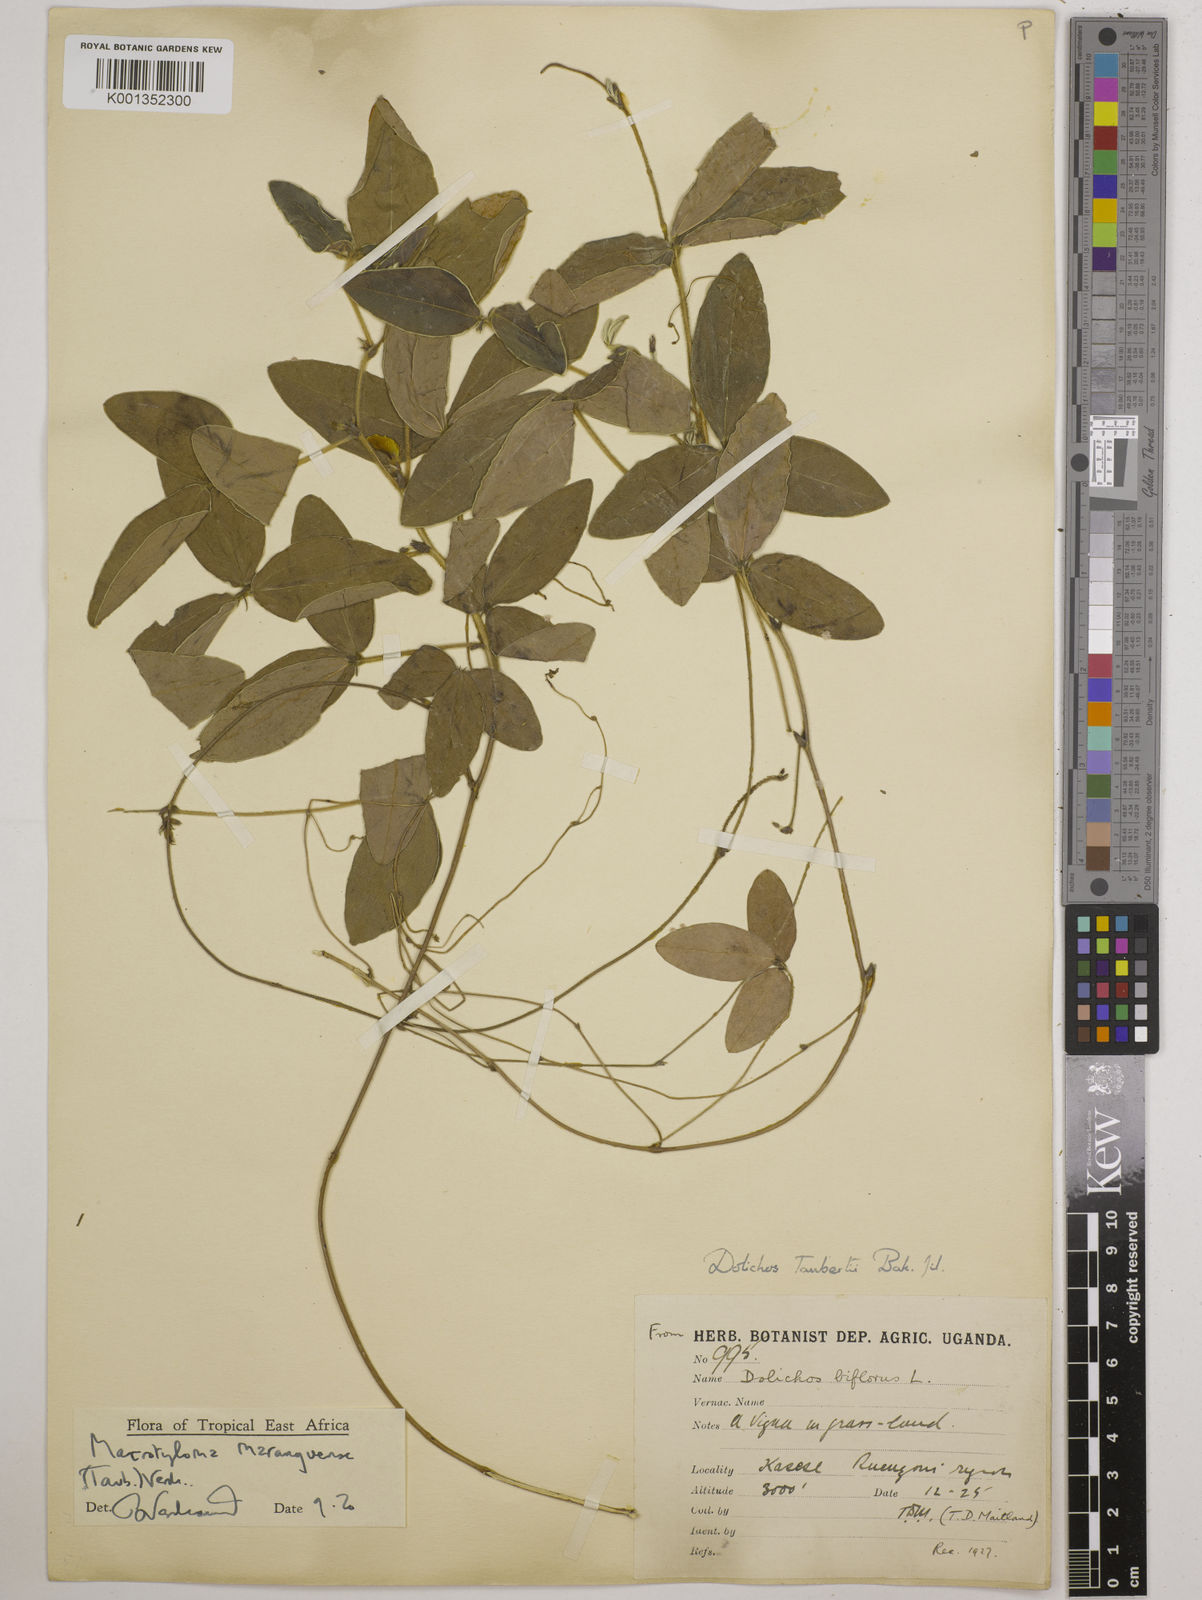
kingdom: Plantae
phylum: Tracheophyta
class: Magnoliopsida
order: Fabales
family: Fabaceae
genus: Macrotyloma
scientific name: Macrotyloma maranguense
